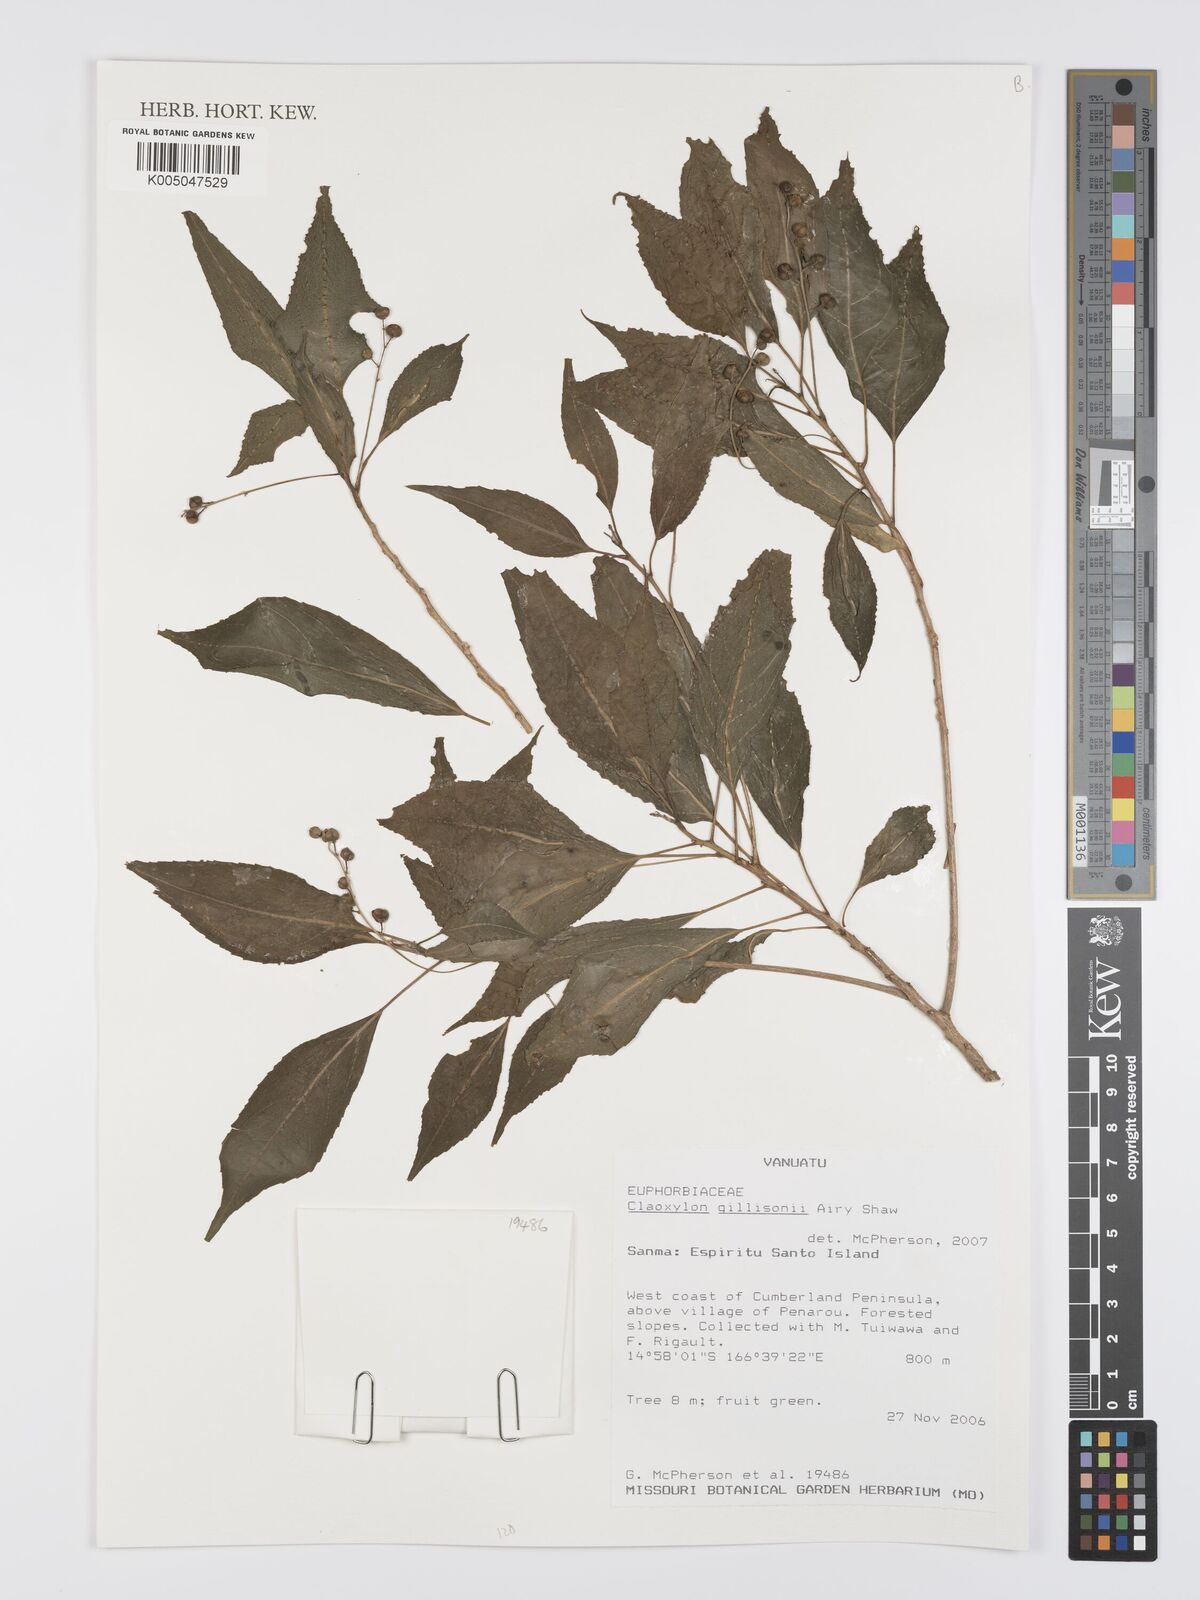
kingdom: Plantae
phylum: Tracheophyta
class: Magnoliopsida
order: Malpighiales
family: Euphorbiaceae
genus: Claoxylon
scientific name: Claoxylon gillisonii
